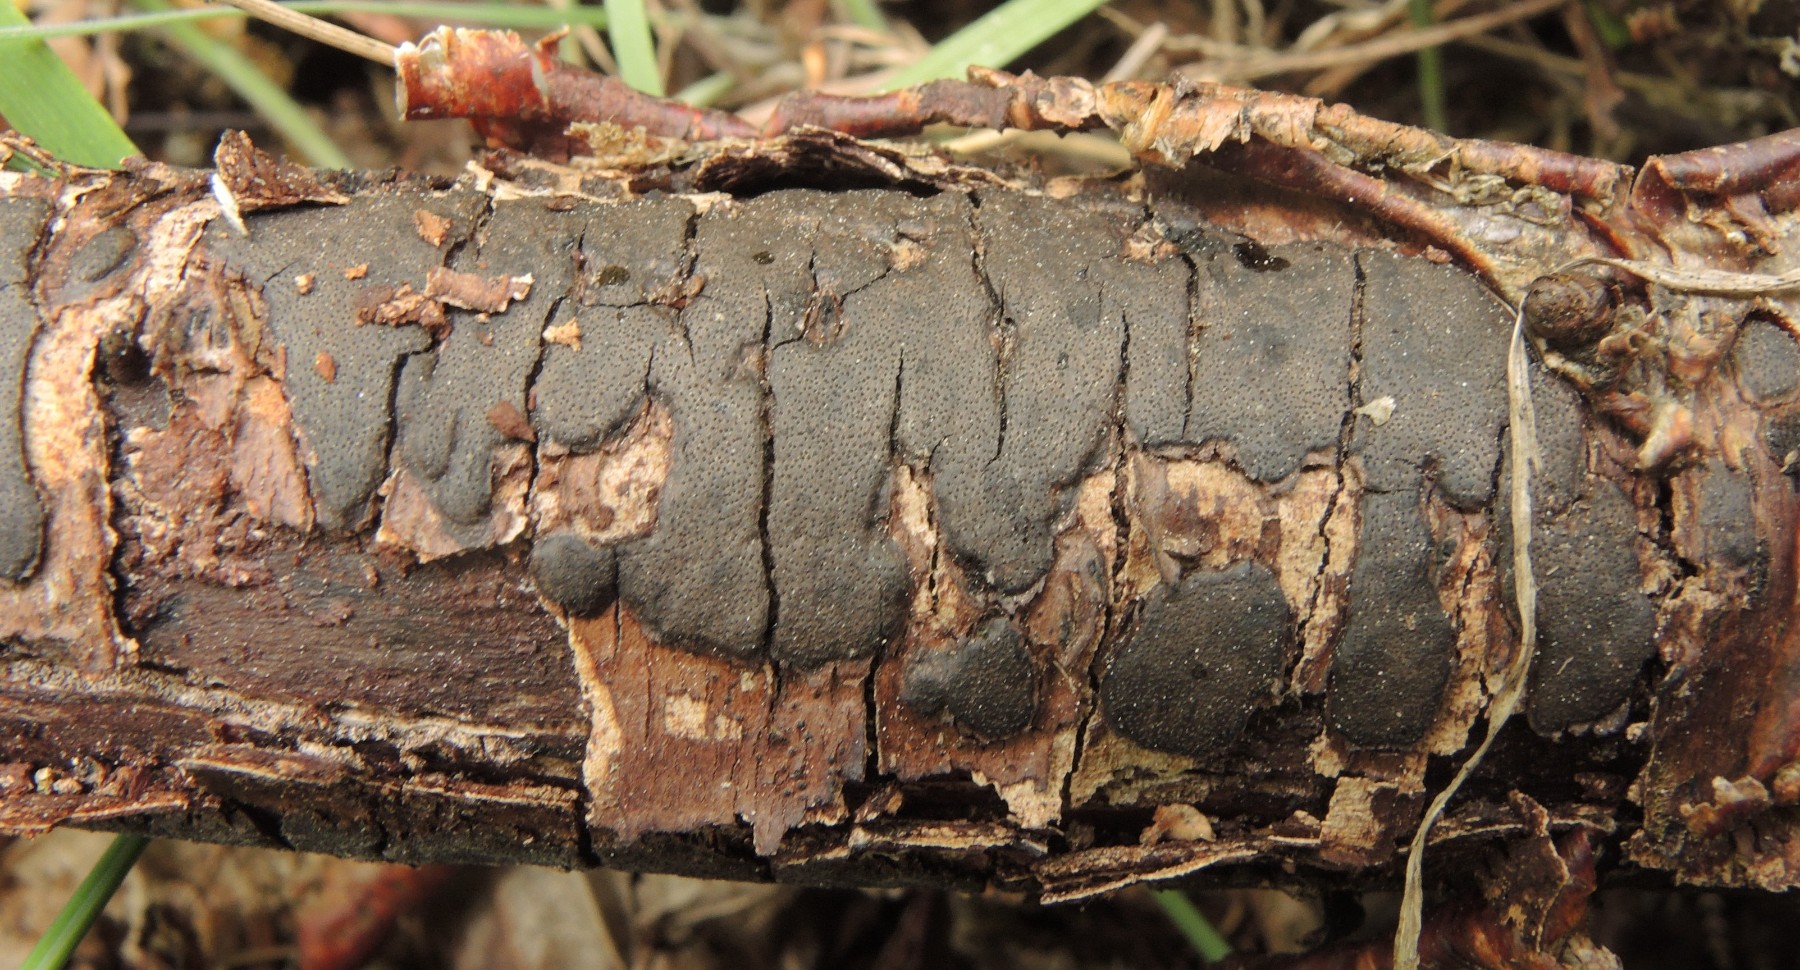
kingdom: Fungi
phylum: Ascomycota
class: Sordariomycetes
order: Xylariales
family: Diatrypaceae
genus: Diatrype
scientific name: Diatrype
